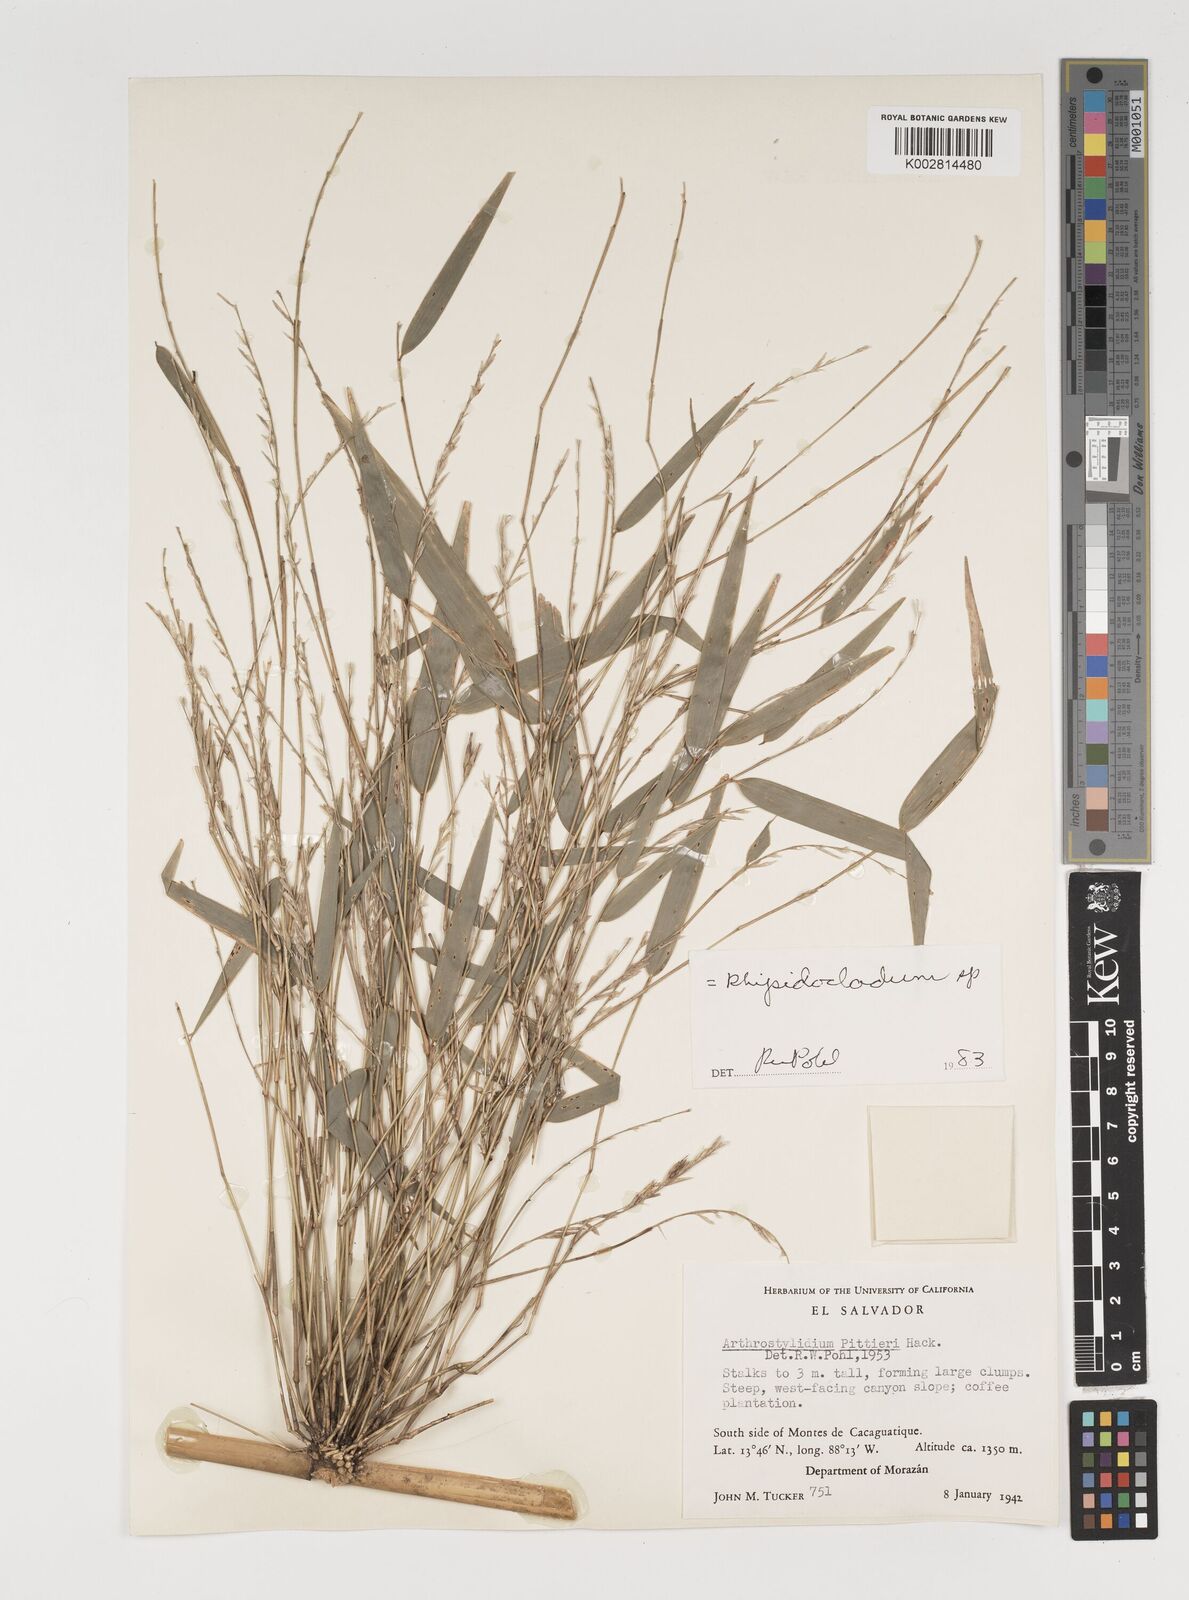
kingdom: Plantae
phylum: Tracheophyta
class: Liliopsida
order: Poales
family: Poaceae
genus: Rhipidocladum
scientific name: Rhipidocladum pittieri
